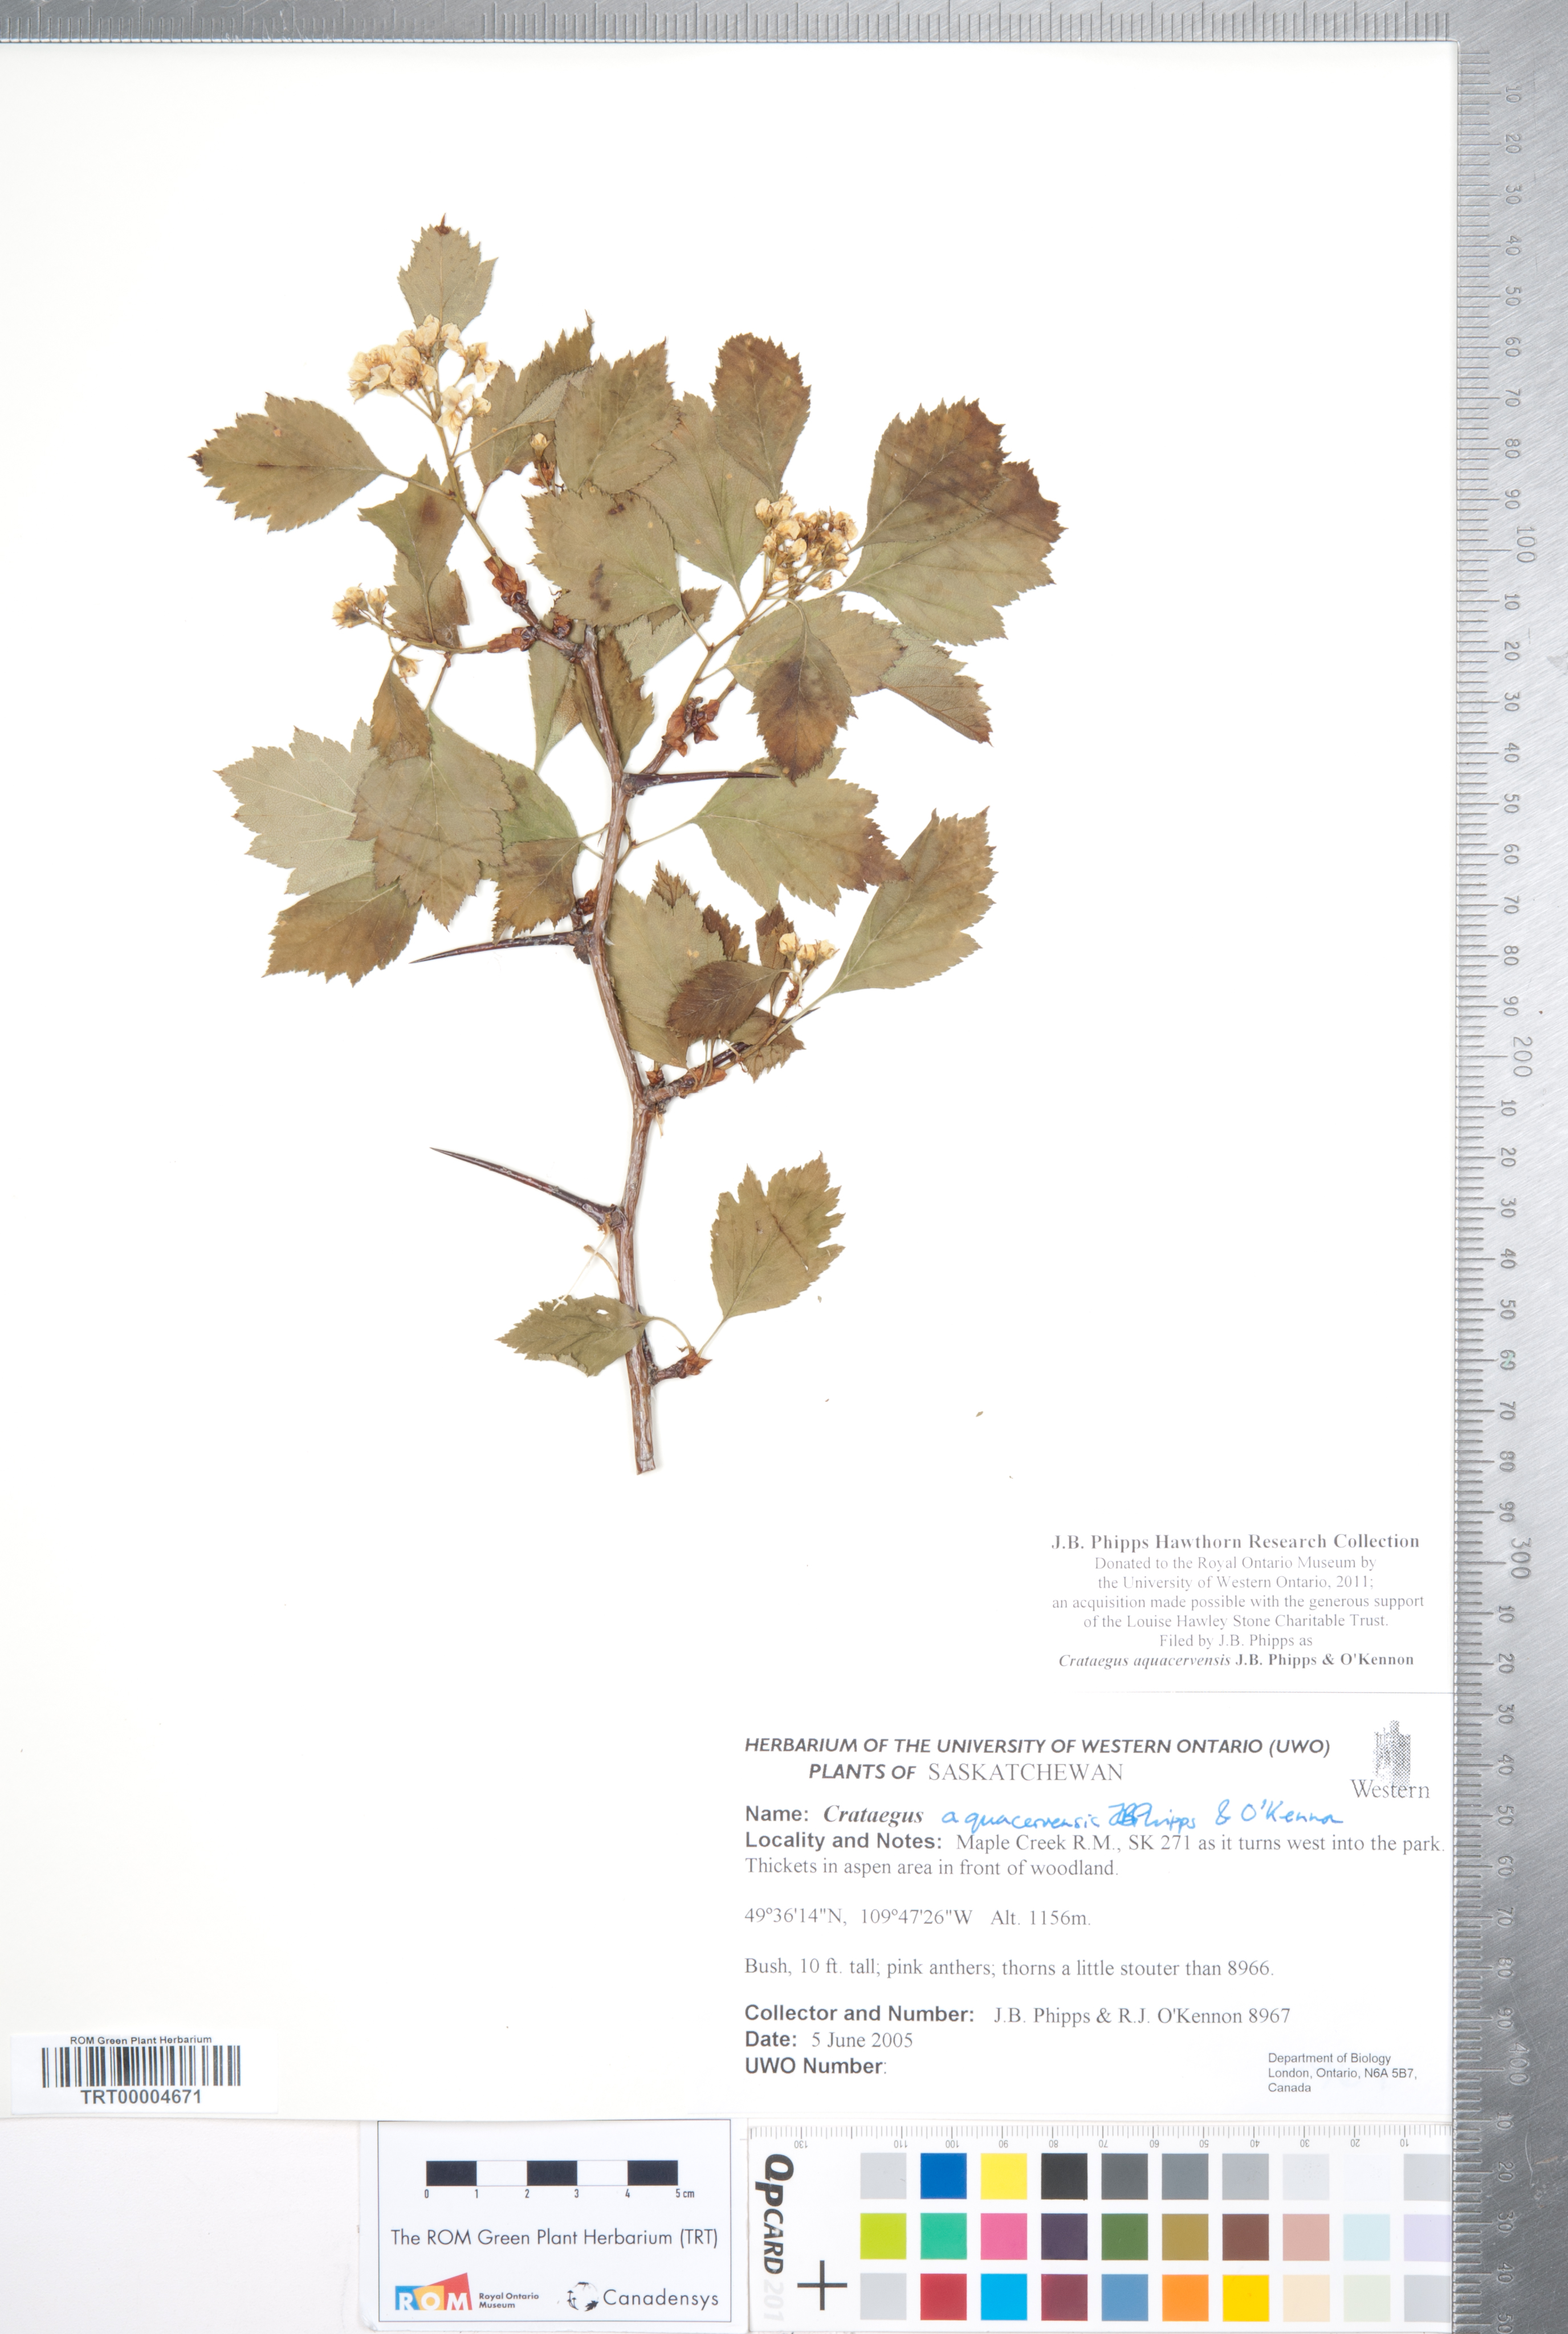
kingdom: Plantae
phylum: Tracheophyta
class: Magnoliopsida
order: Rosales
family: Rosaceae
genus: Crataegus
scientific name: Crataegus aquacervensis
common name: Elkwater hawthorn
